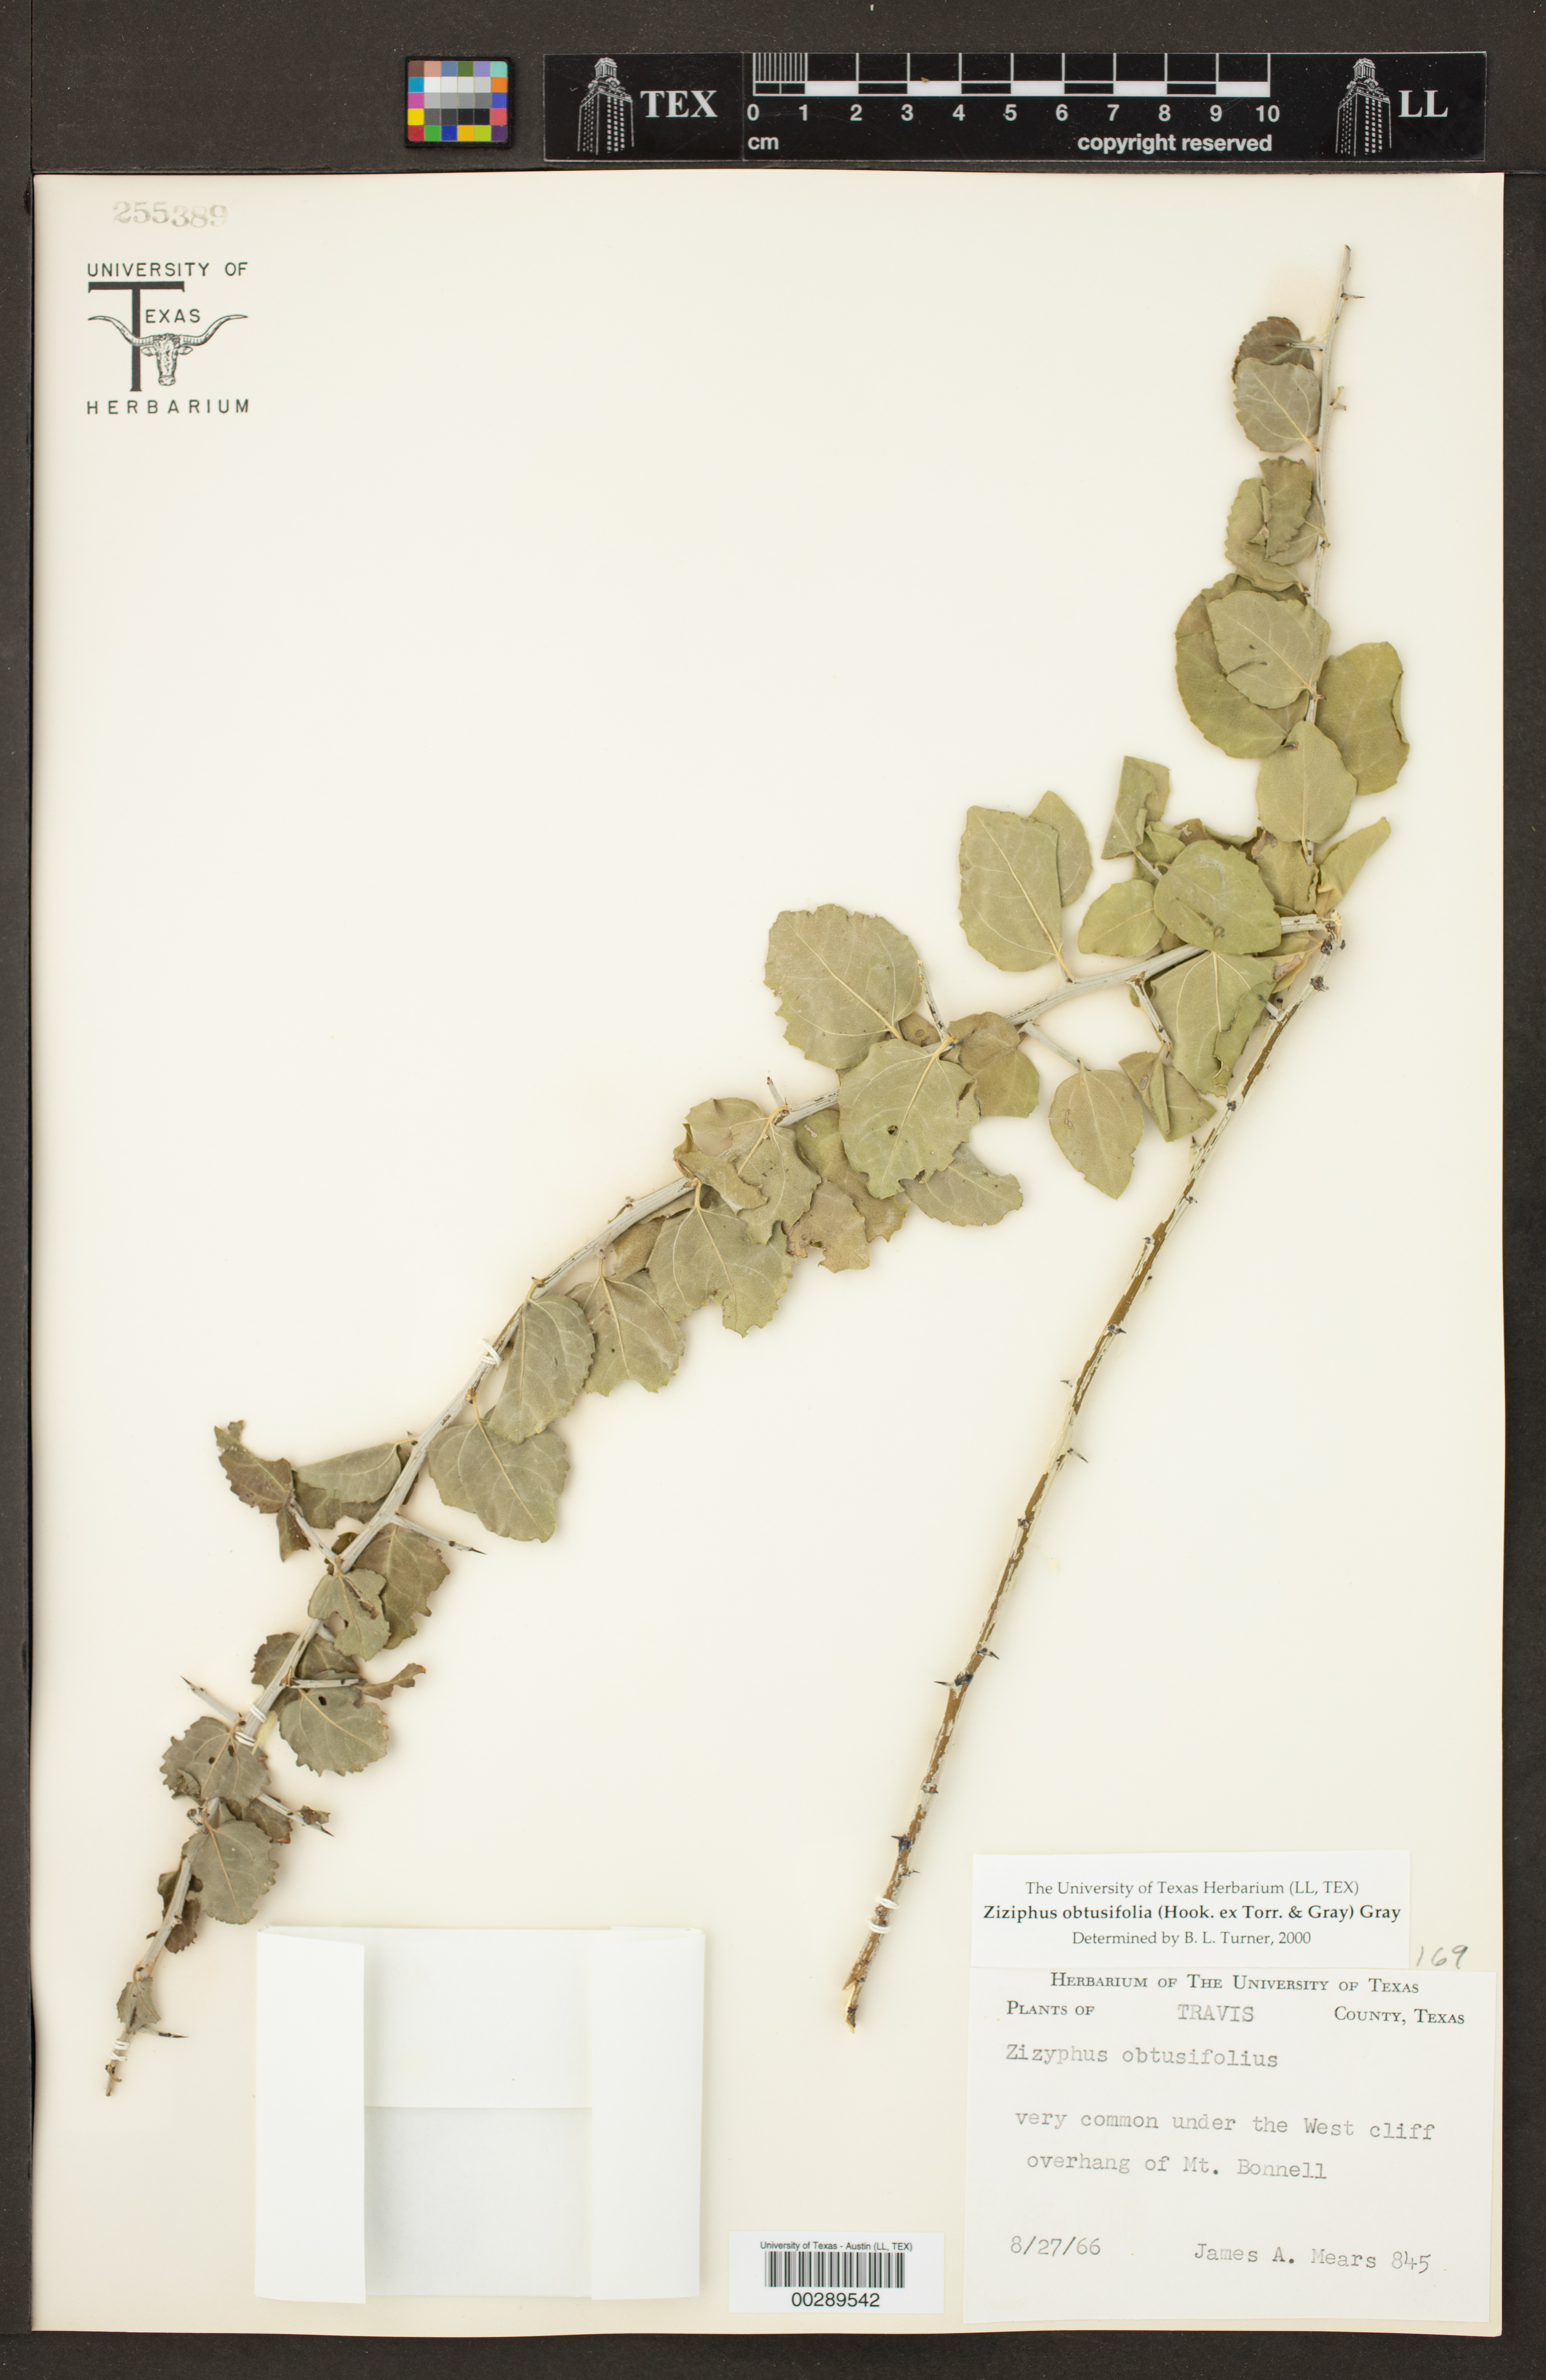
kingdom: Plantae
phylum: Tracheophyta
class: Magnoliopsida
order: Rosales
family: Rhamnaceae
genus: Sarcomphalus
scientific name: Sarcomphalus obtusifolius
